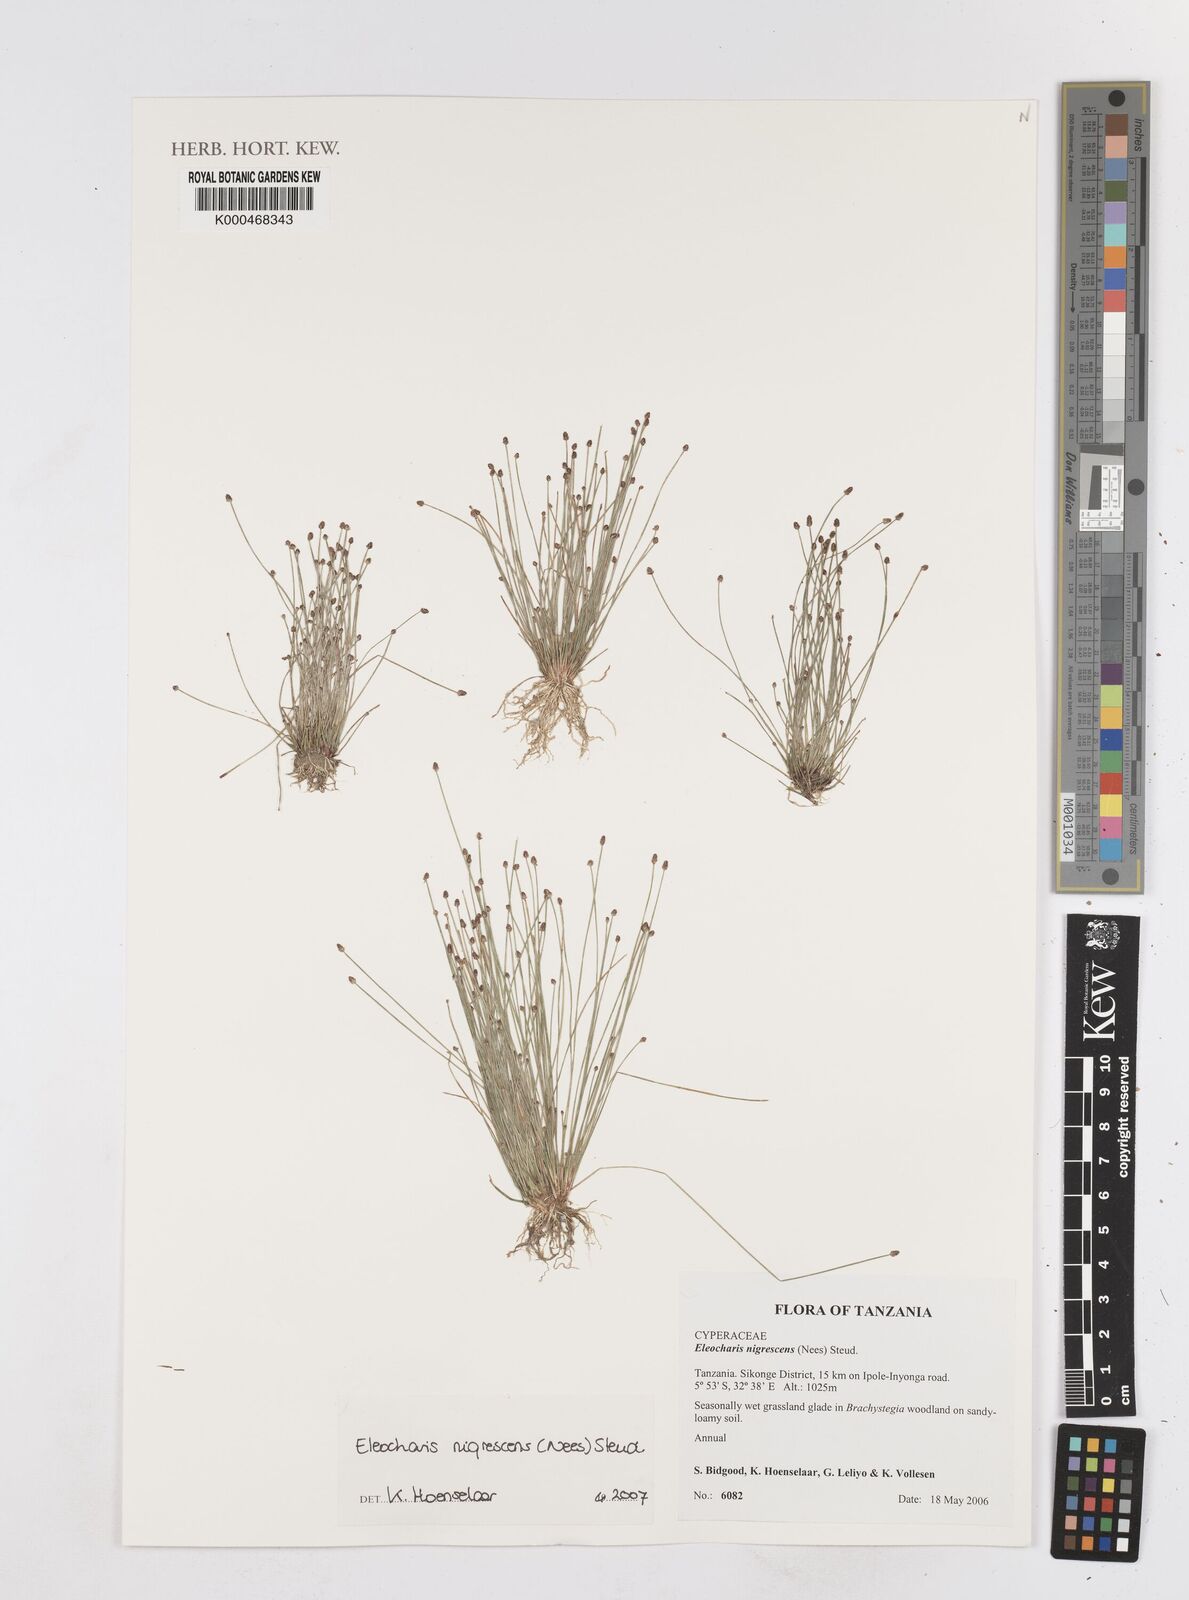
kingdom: Plantae
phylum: Tracheophyta
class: Liliopsida
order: Poales
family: Cyperaceae
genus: Eleocharis
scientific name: Eleocharis
